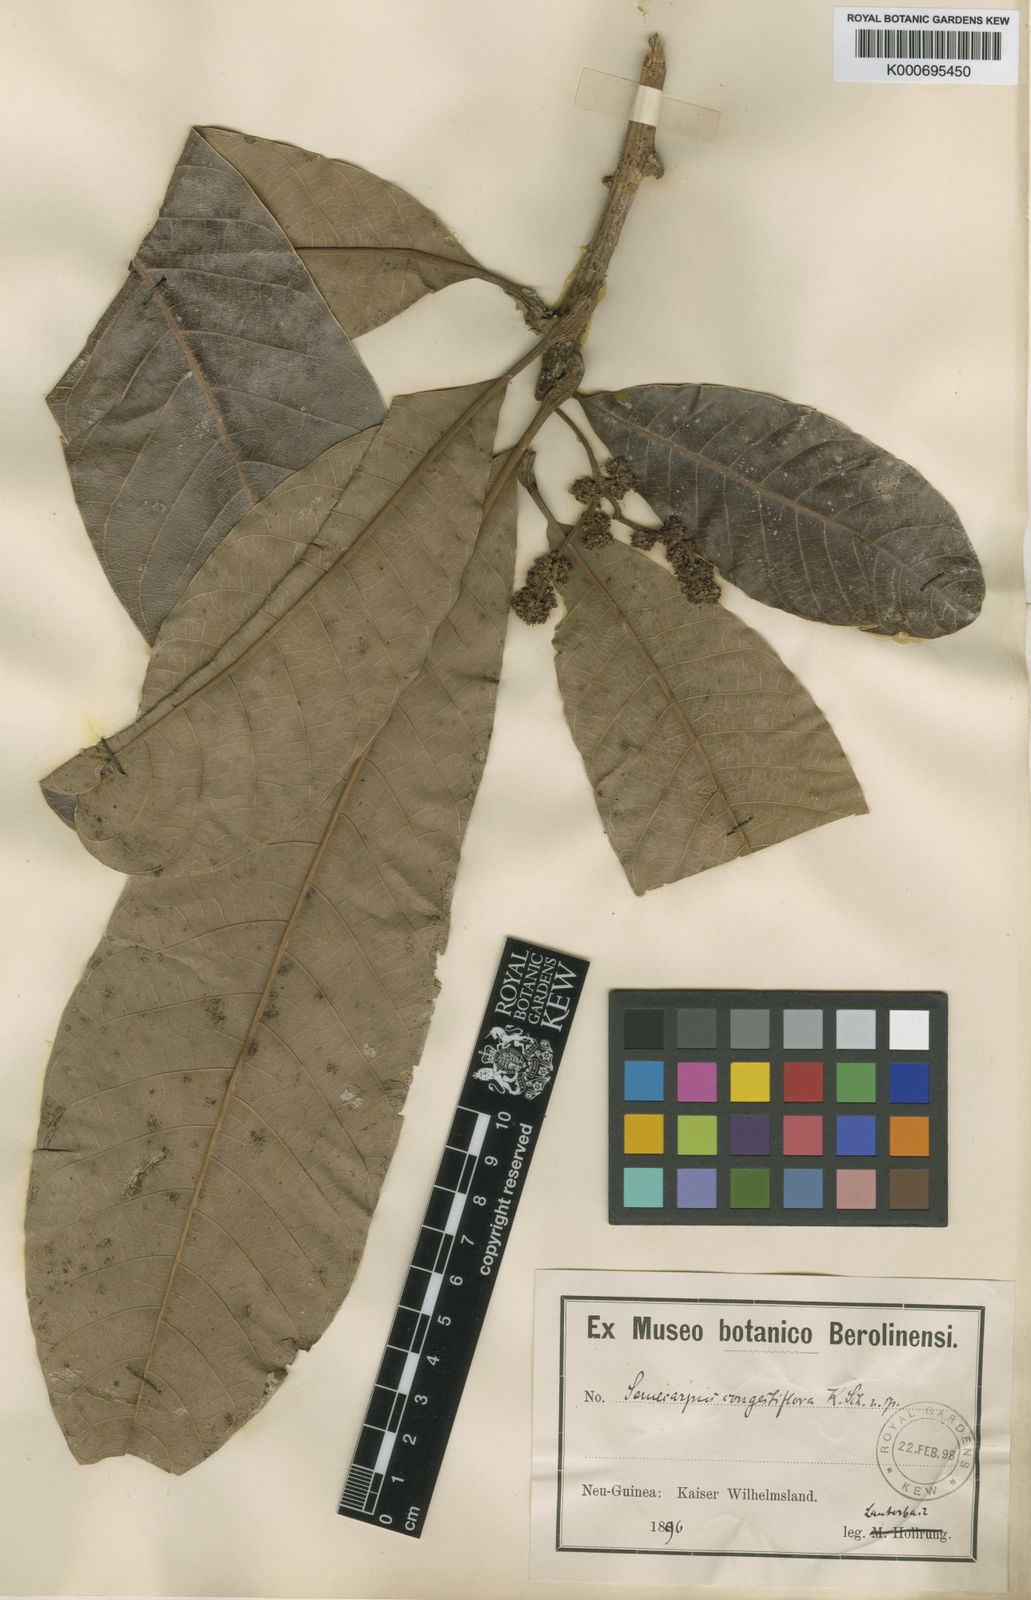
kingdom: Plantae
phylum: Tracheophyta
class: Magnoliopsida
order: Sapindales
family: Anacardiaceae
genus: Semecarpus
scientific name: Semecarpus australiensis
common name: Cedar-plum
